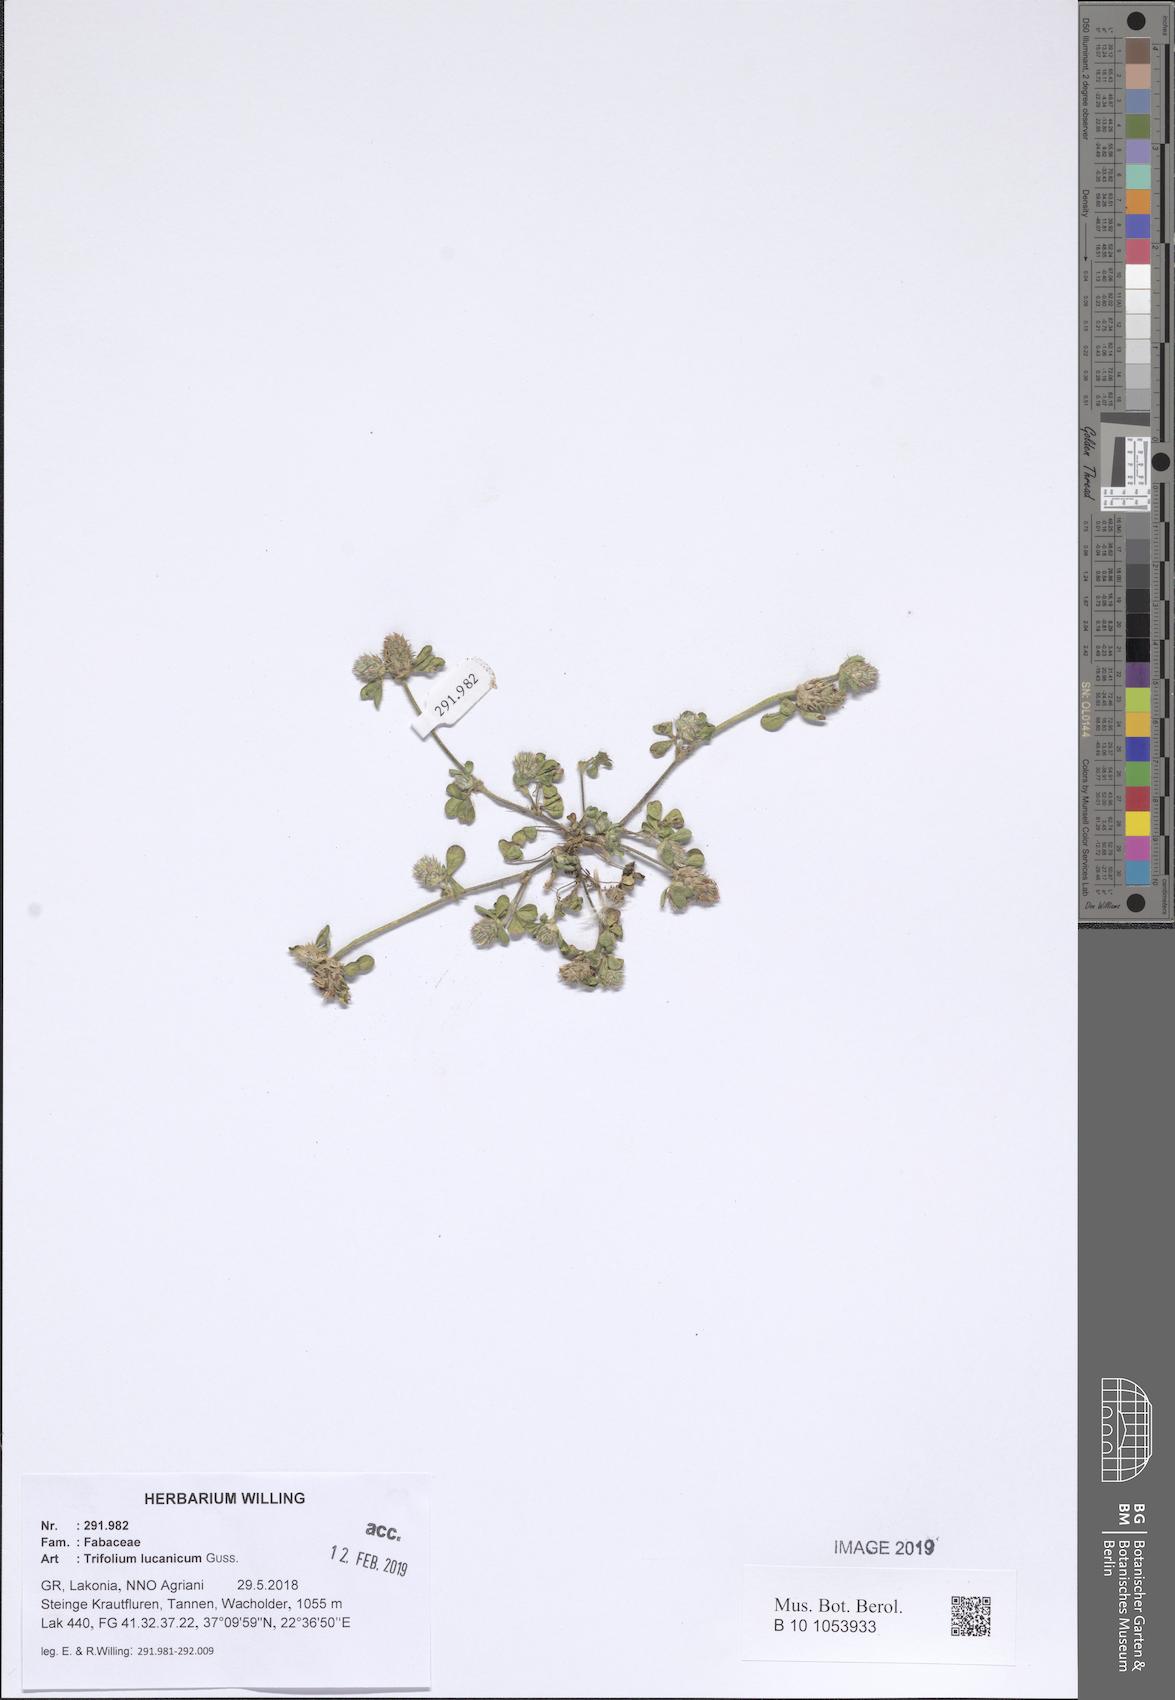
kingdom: Plantae
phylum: Tracheophyta
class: Magnoliopsida
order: Fabales
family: Fabaceae
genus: Trifolium
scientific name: Trifolium lucanicum
